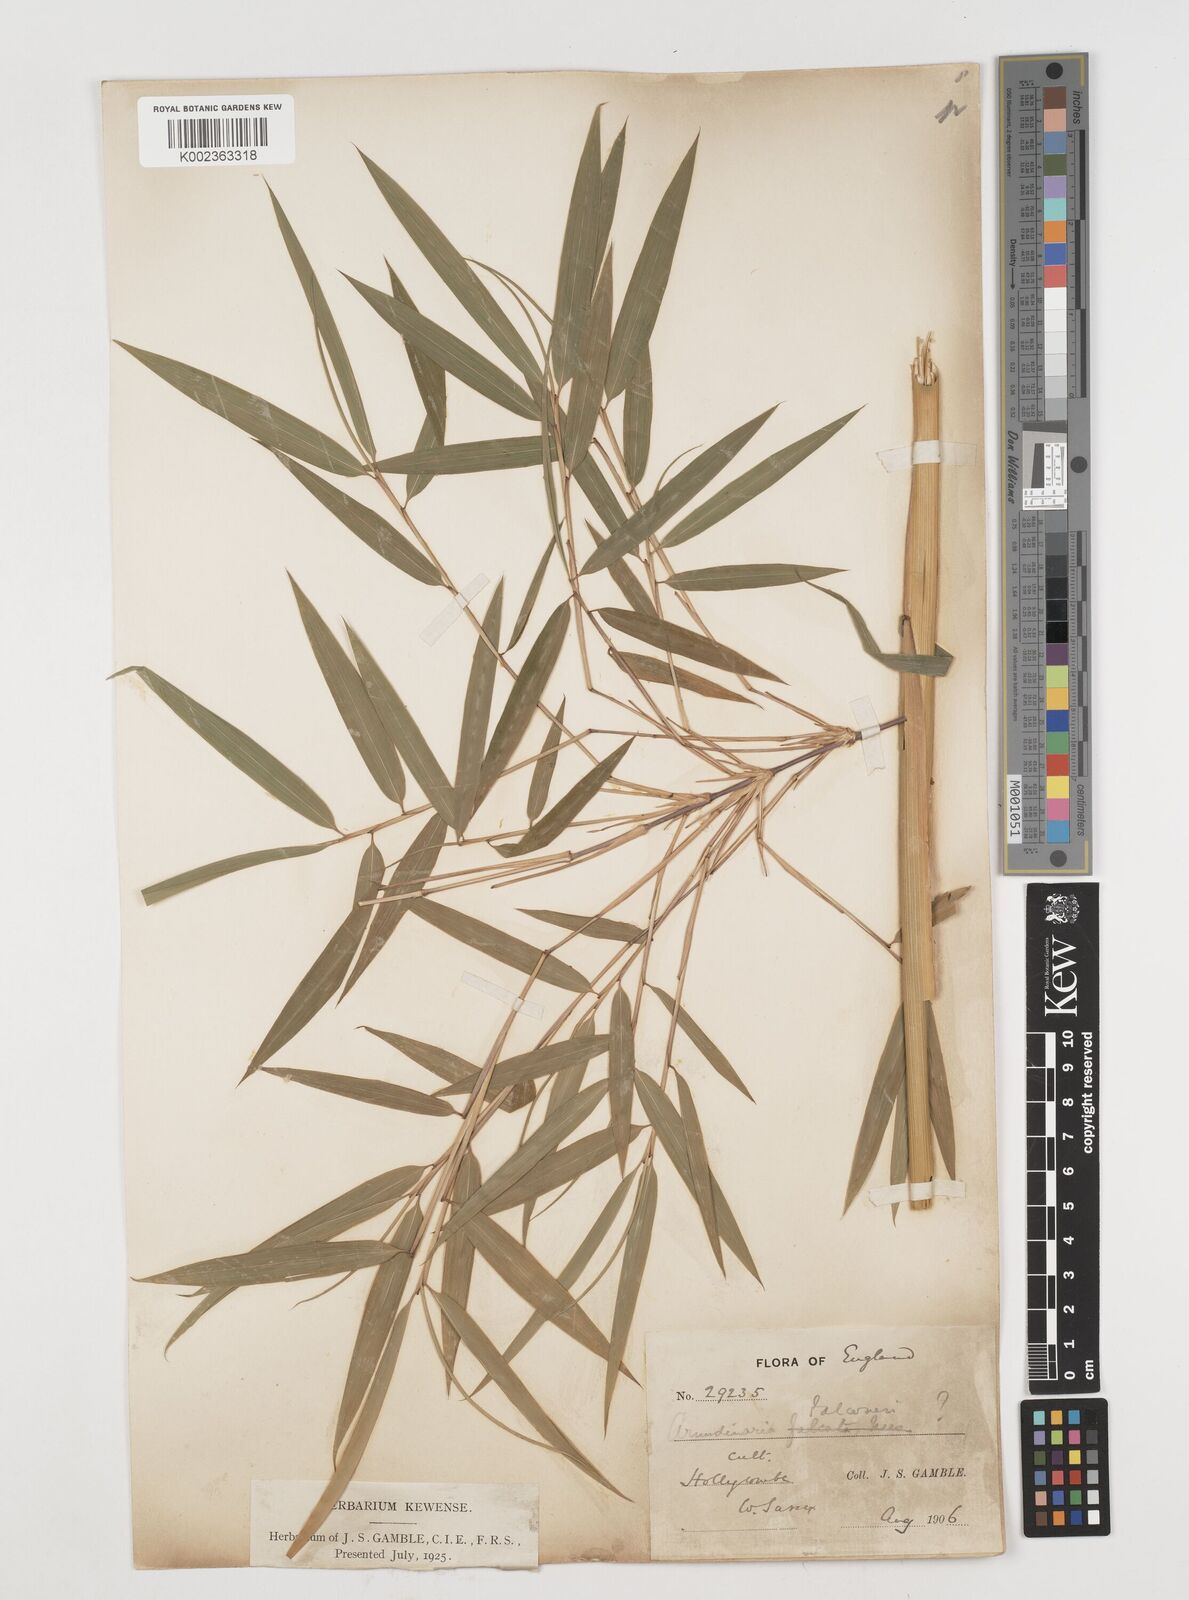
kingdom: Plantae
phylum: Tracheophyta
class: Liliopsida
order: Poales
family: Poaceae
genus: Himalayacalamus
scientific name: Himalayacalamus falconeri
